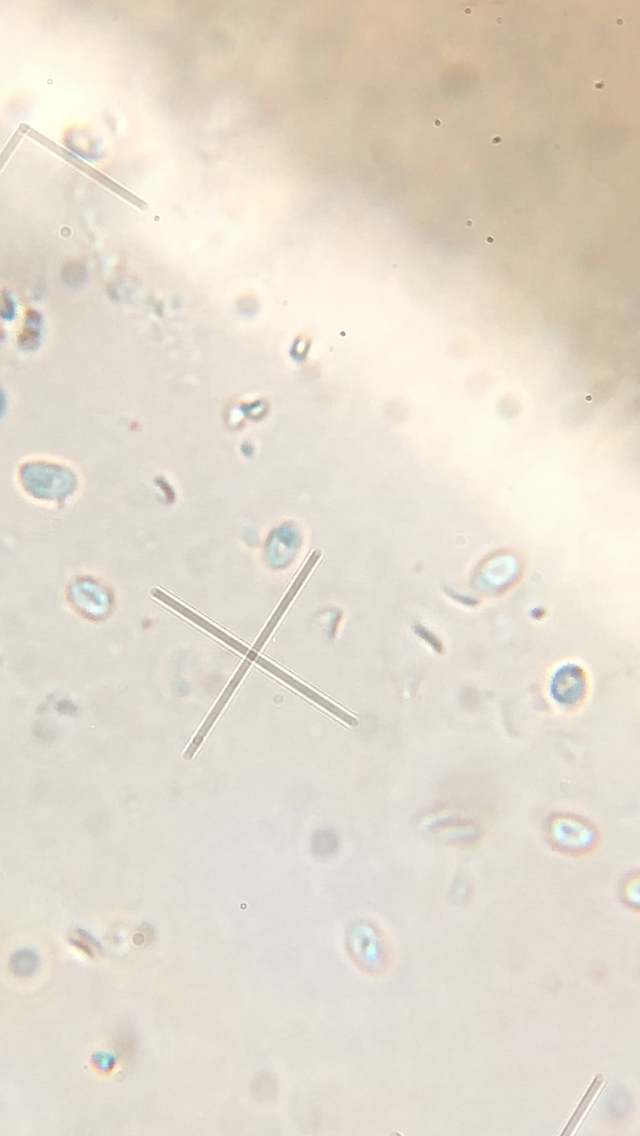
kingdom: Fungi
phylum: Basidiomycota
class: Agaricomycetes
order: Polyporales
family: Steccherinaceae
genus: Steccherinum
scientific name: Steccherinum ochraceum
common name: almindelig skønpig
